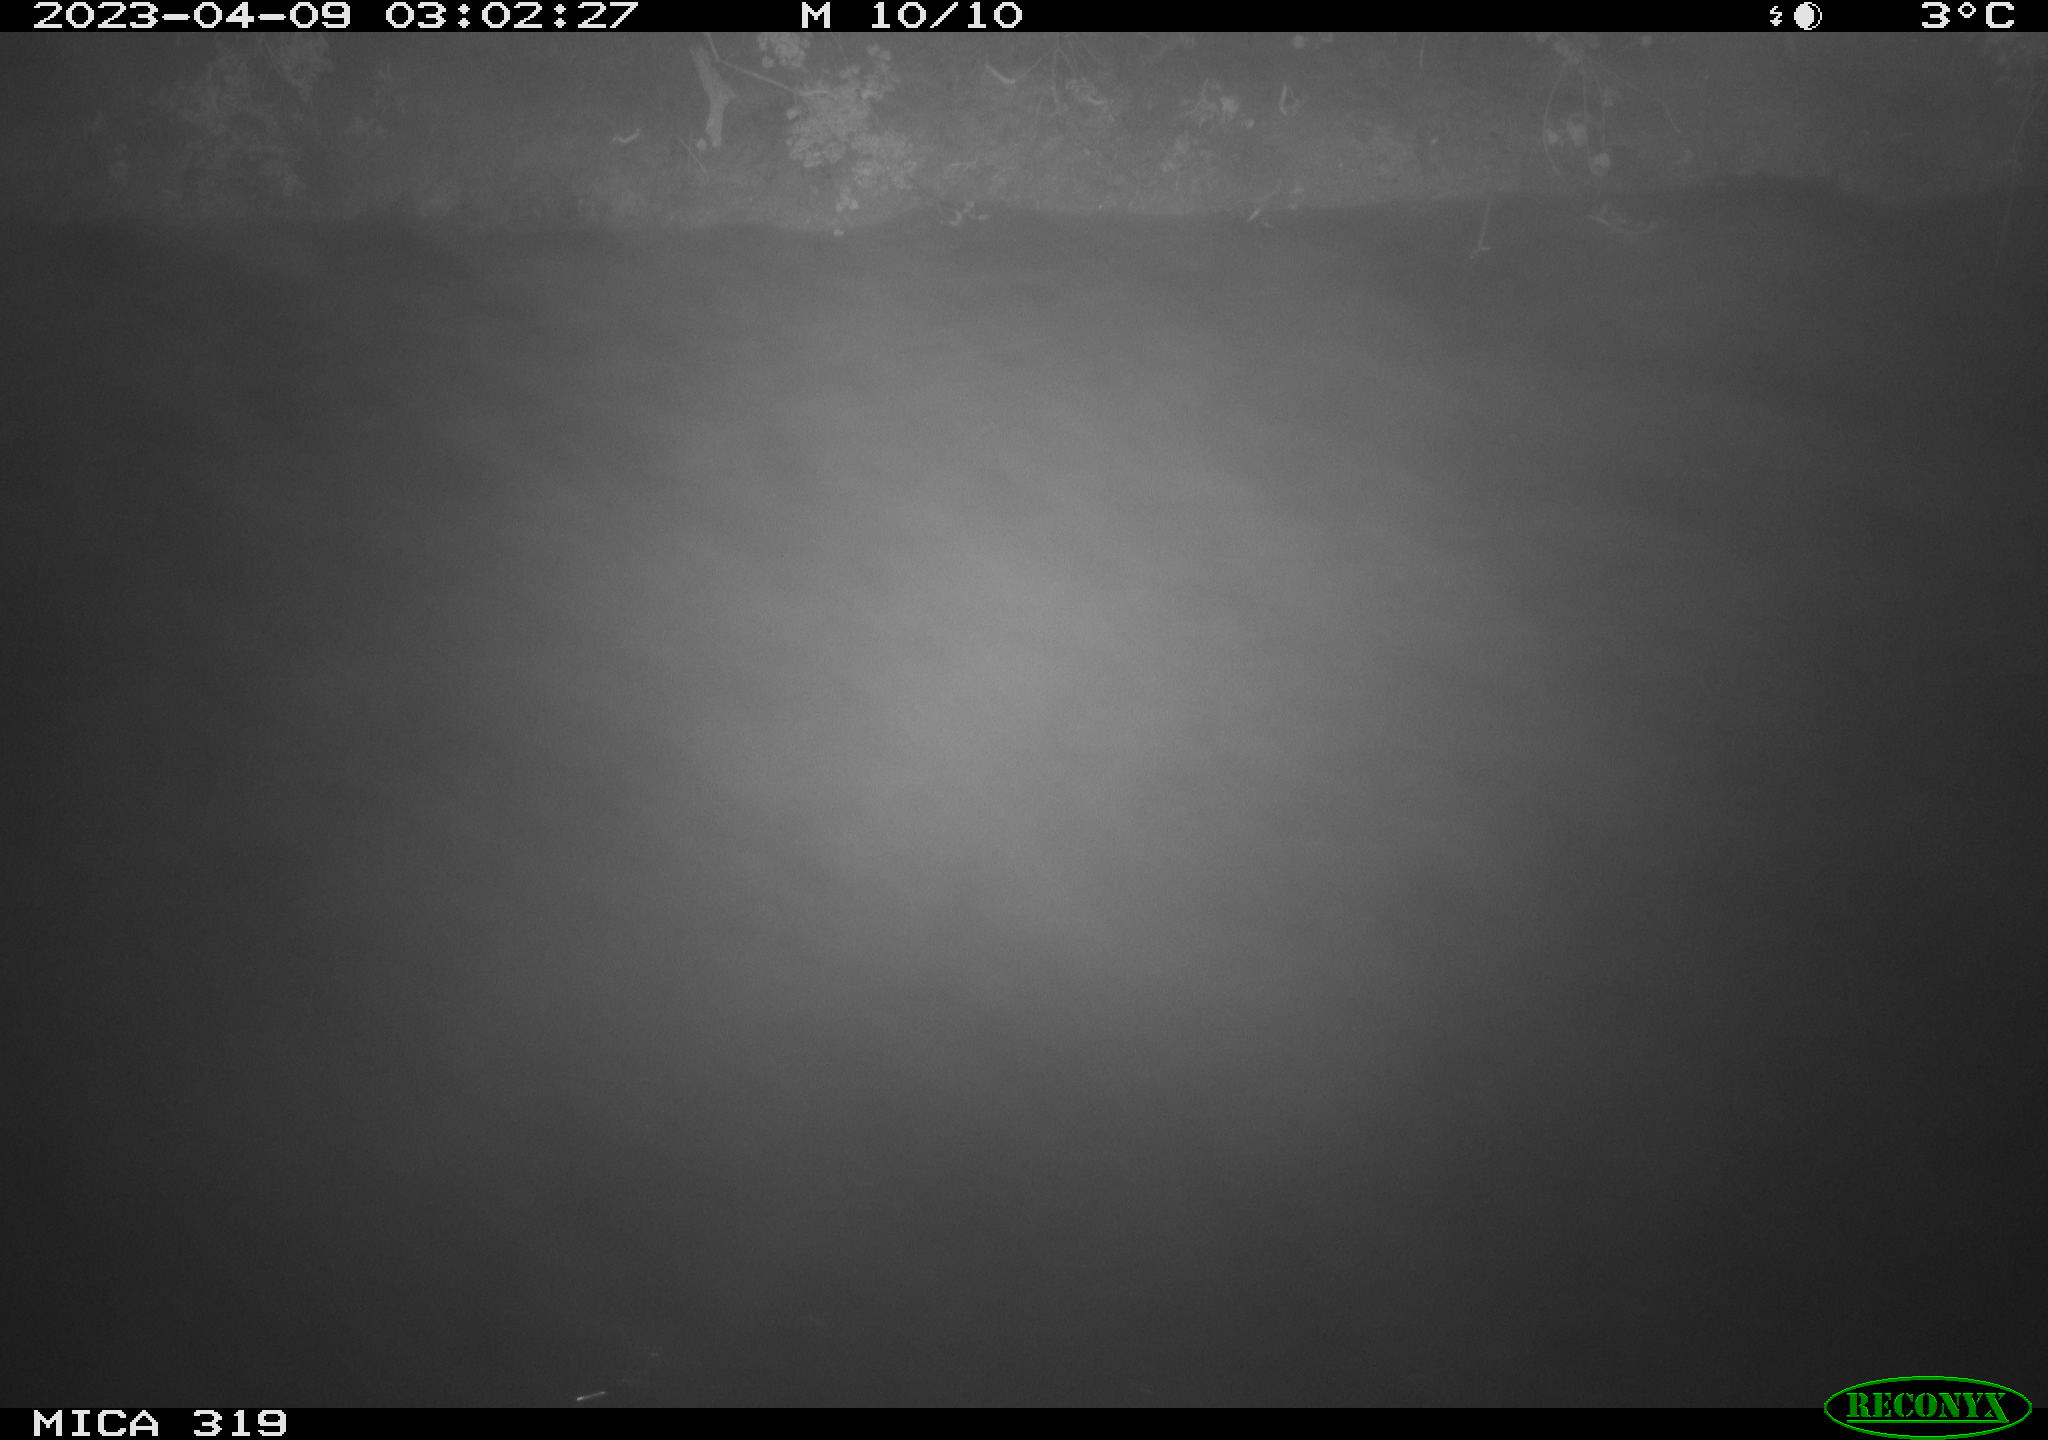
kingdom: Animalia
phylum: Chordata
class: Aves
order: Anseriformes
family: Anatidae
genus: Anas
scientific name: Anas
